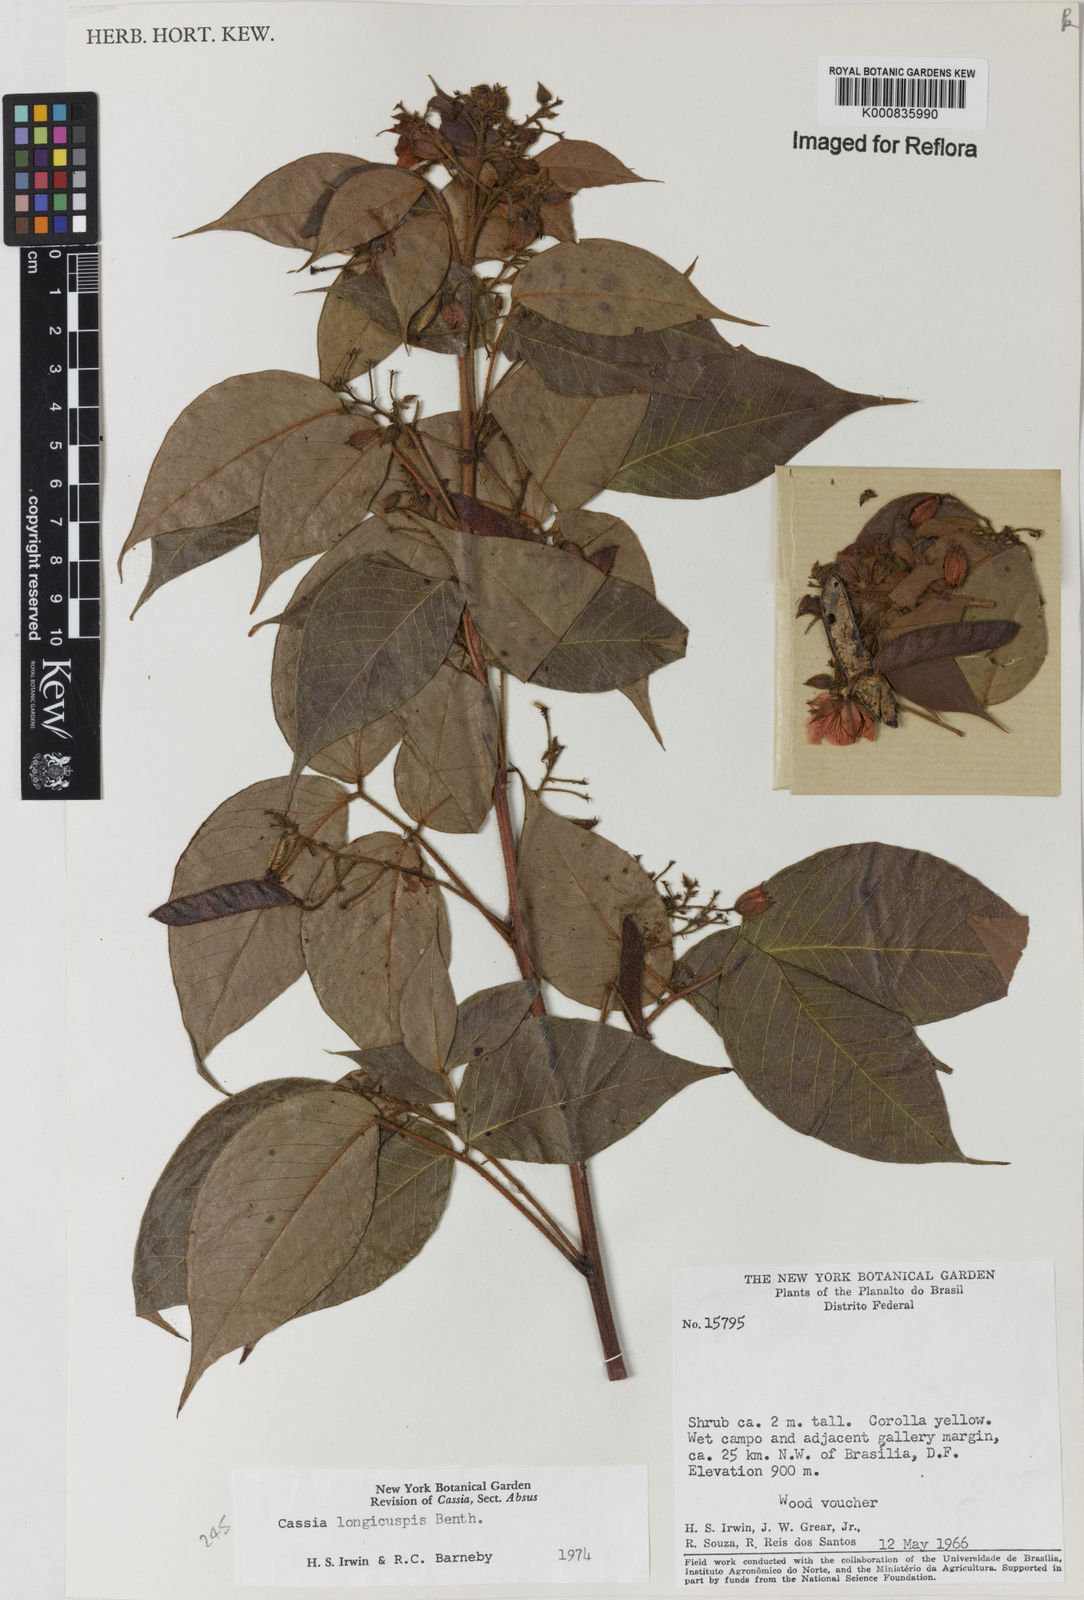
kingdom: Plantae
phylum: Tracheophyta
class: Magnoliopsida
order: Fabales
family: Fabaceae
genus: Chamaecrista
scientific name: Chamaecrista longicuspis
